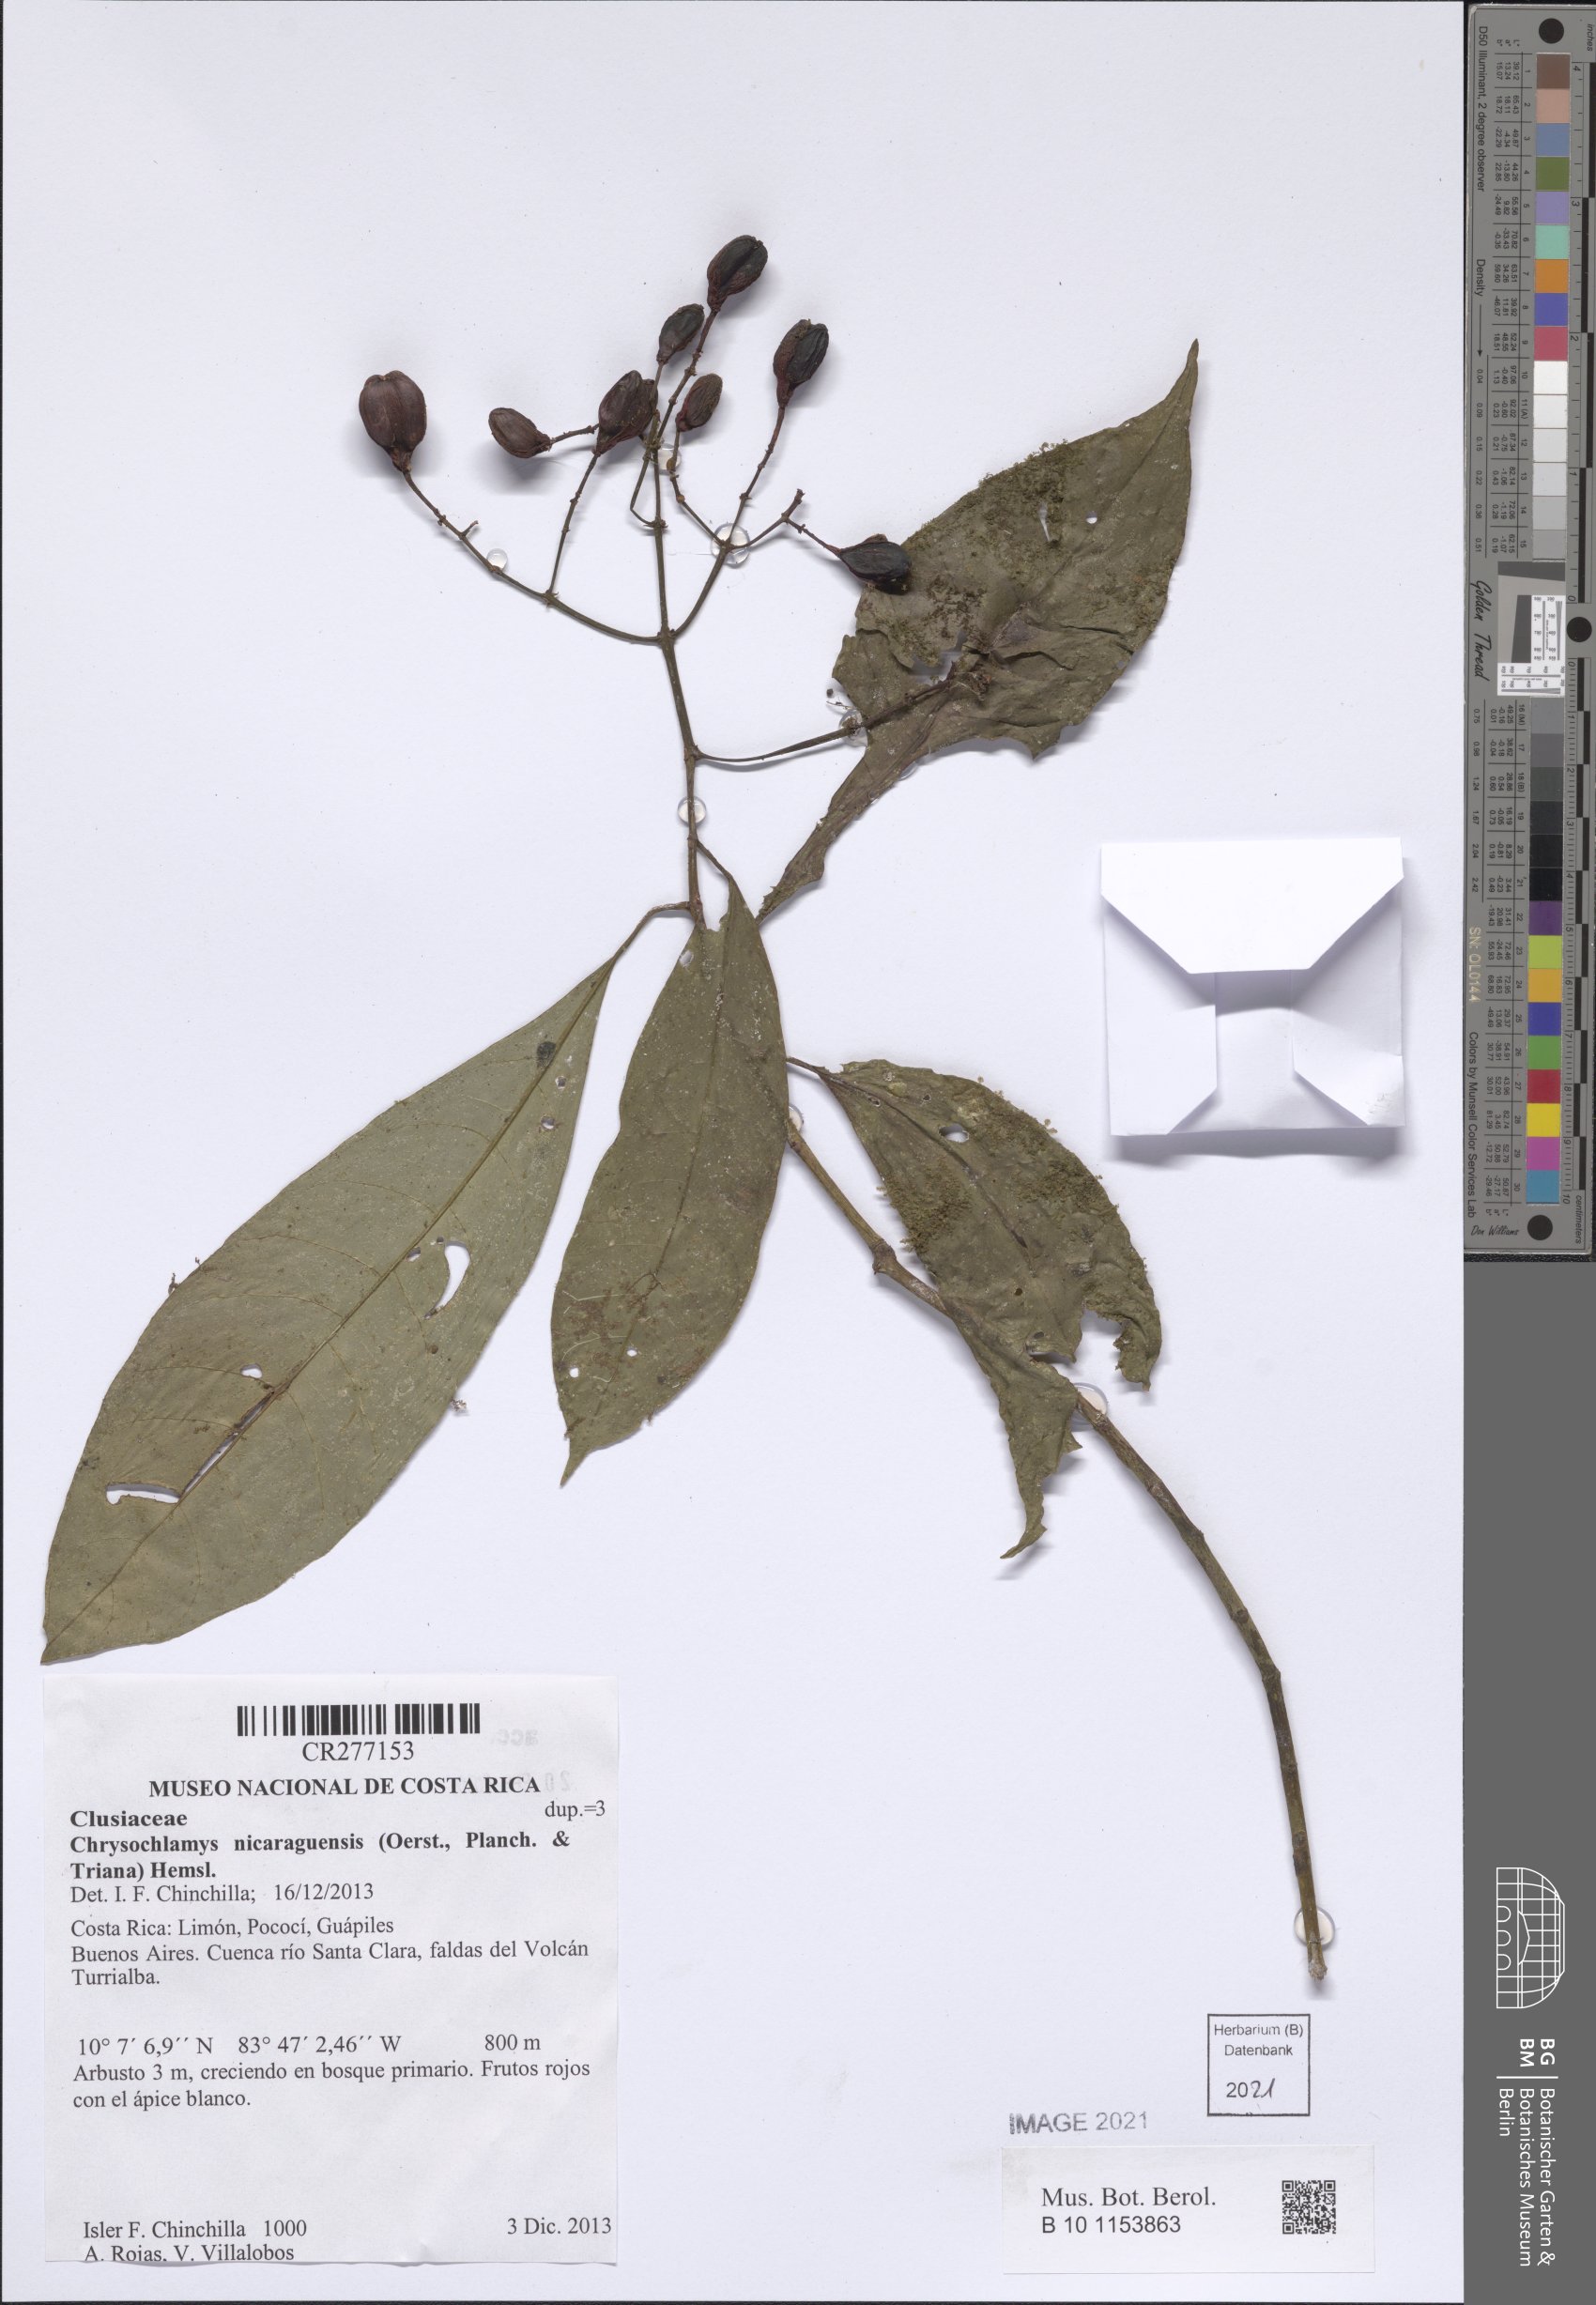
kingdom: Plantae
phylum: Tracheophyta
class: Magnoliopsida
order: Malpighiales
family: Clusiaceae
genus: Chrysochlamys
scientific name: Chrysochlamys nicaraguensis
